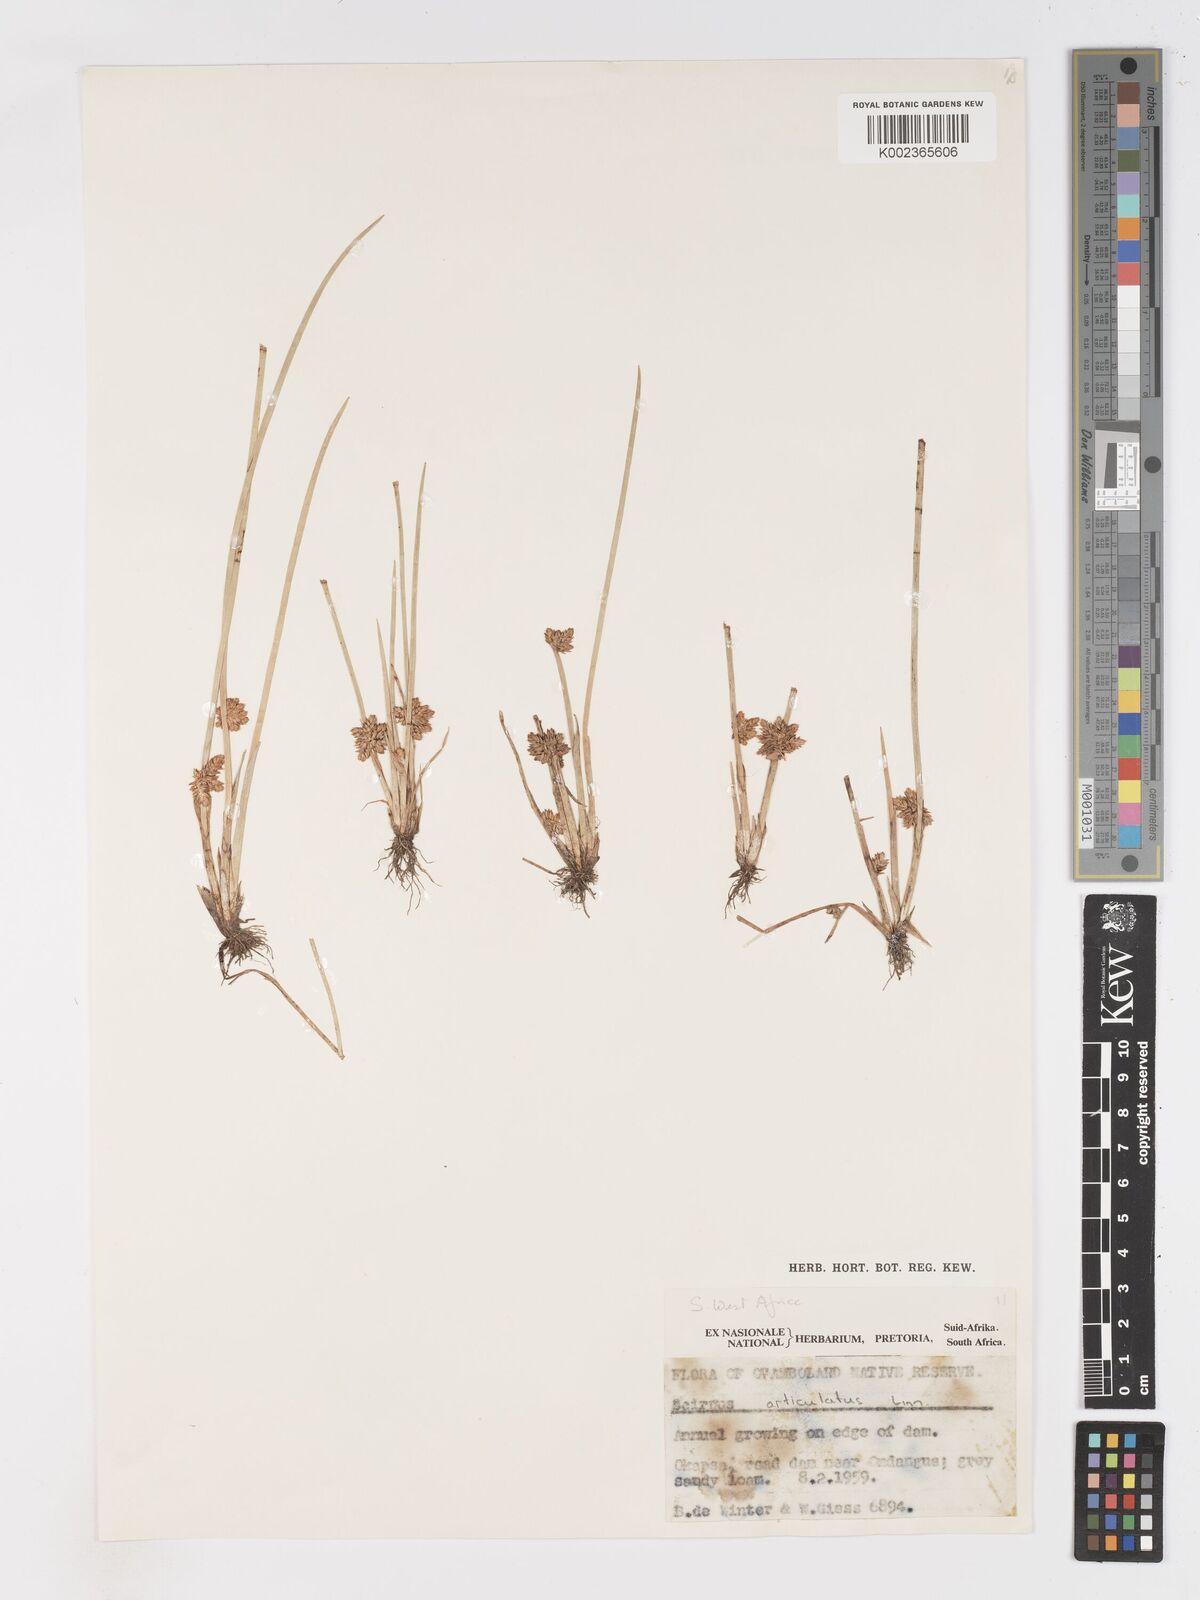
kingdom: Plantae
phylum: Tracheophyta
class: Liliopsida
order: Poales
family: Cyperaceae
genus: Schoenoplectiella
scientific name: Schoenoplectiella senegalensis
